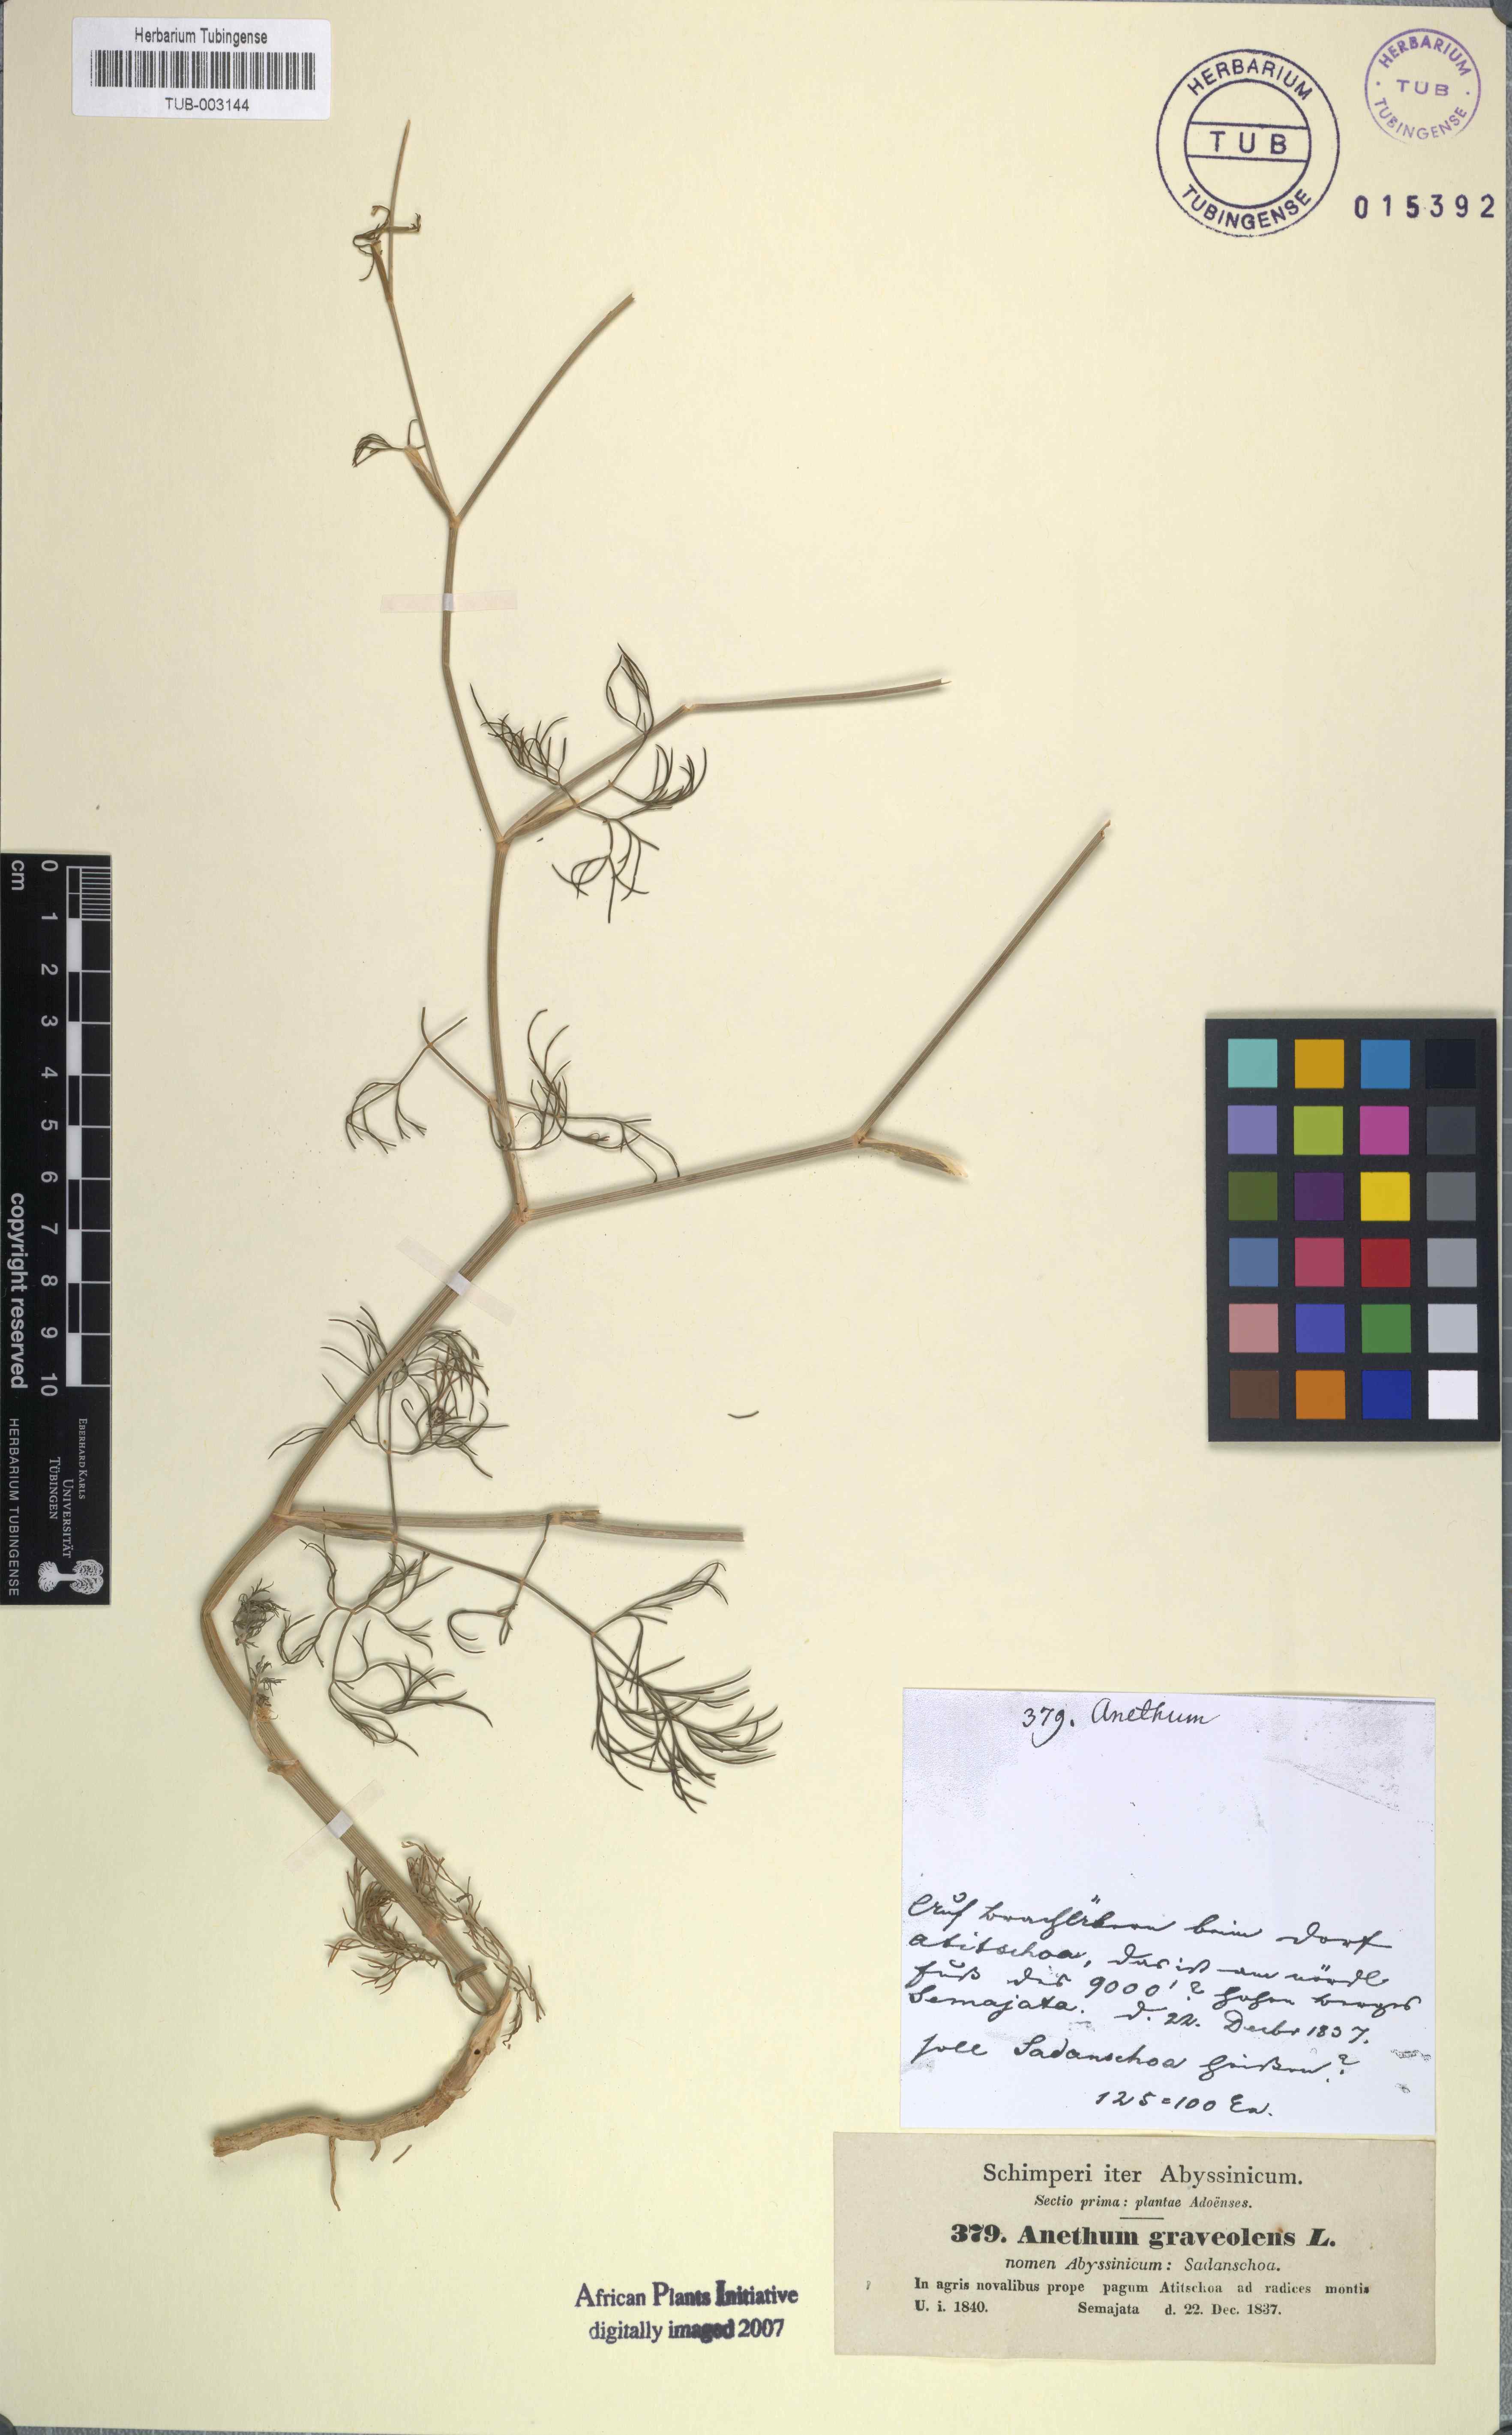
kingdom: Plantae
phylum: Tracheophyta
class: Magnoliopsida
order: Apiales
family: Apiaceae
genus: Anethum
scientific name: Anethum graveolens
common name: Dill
